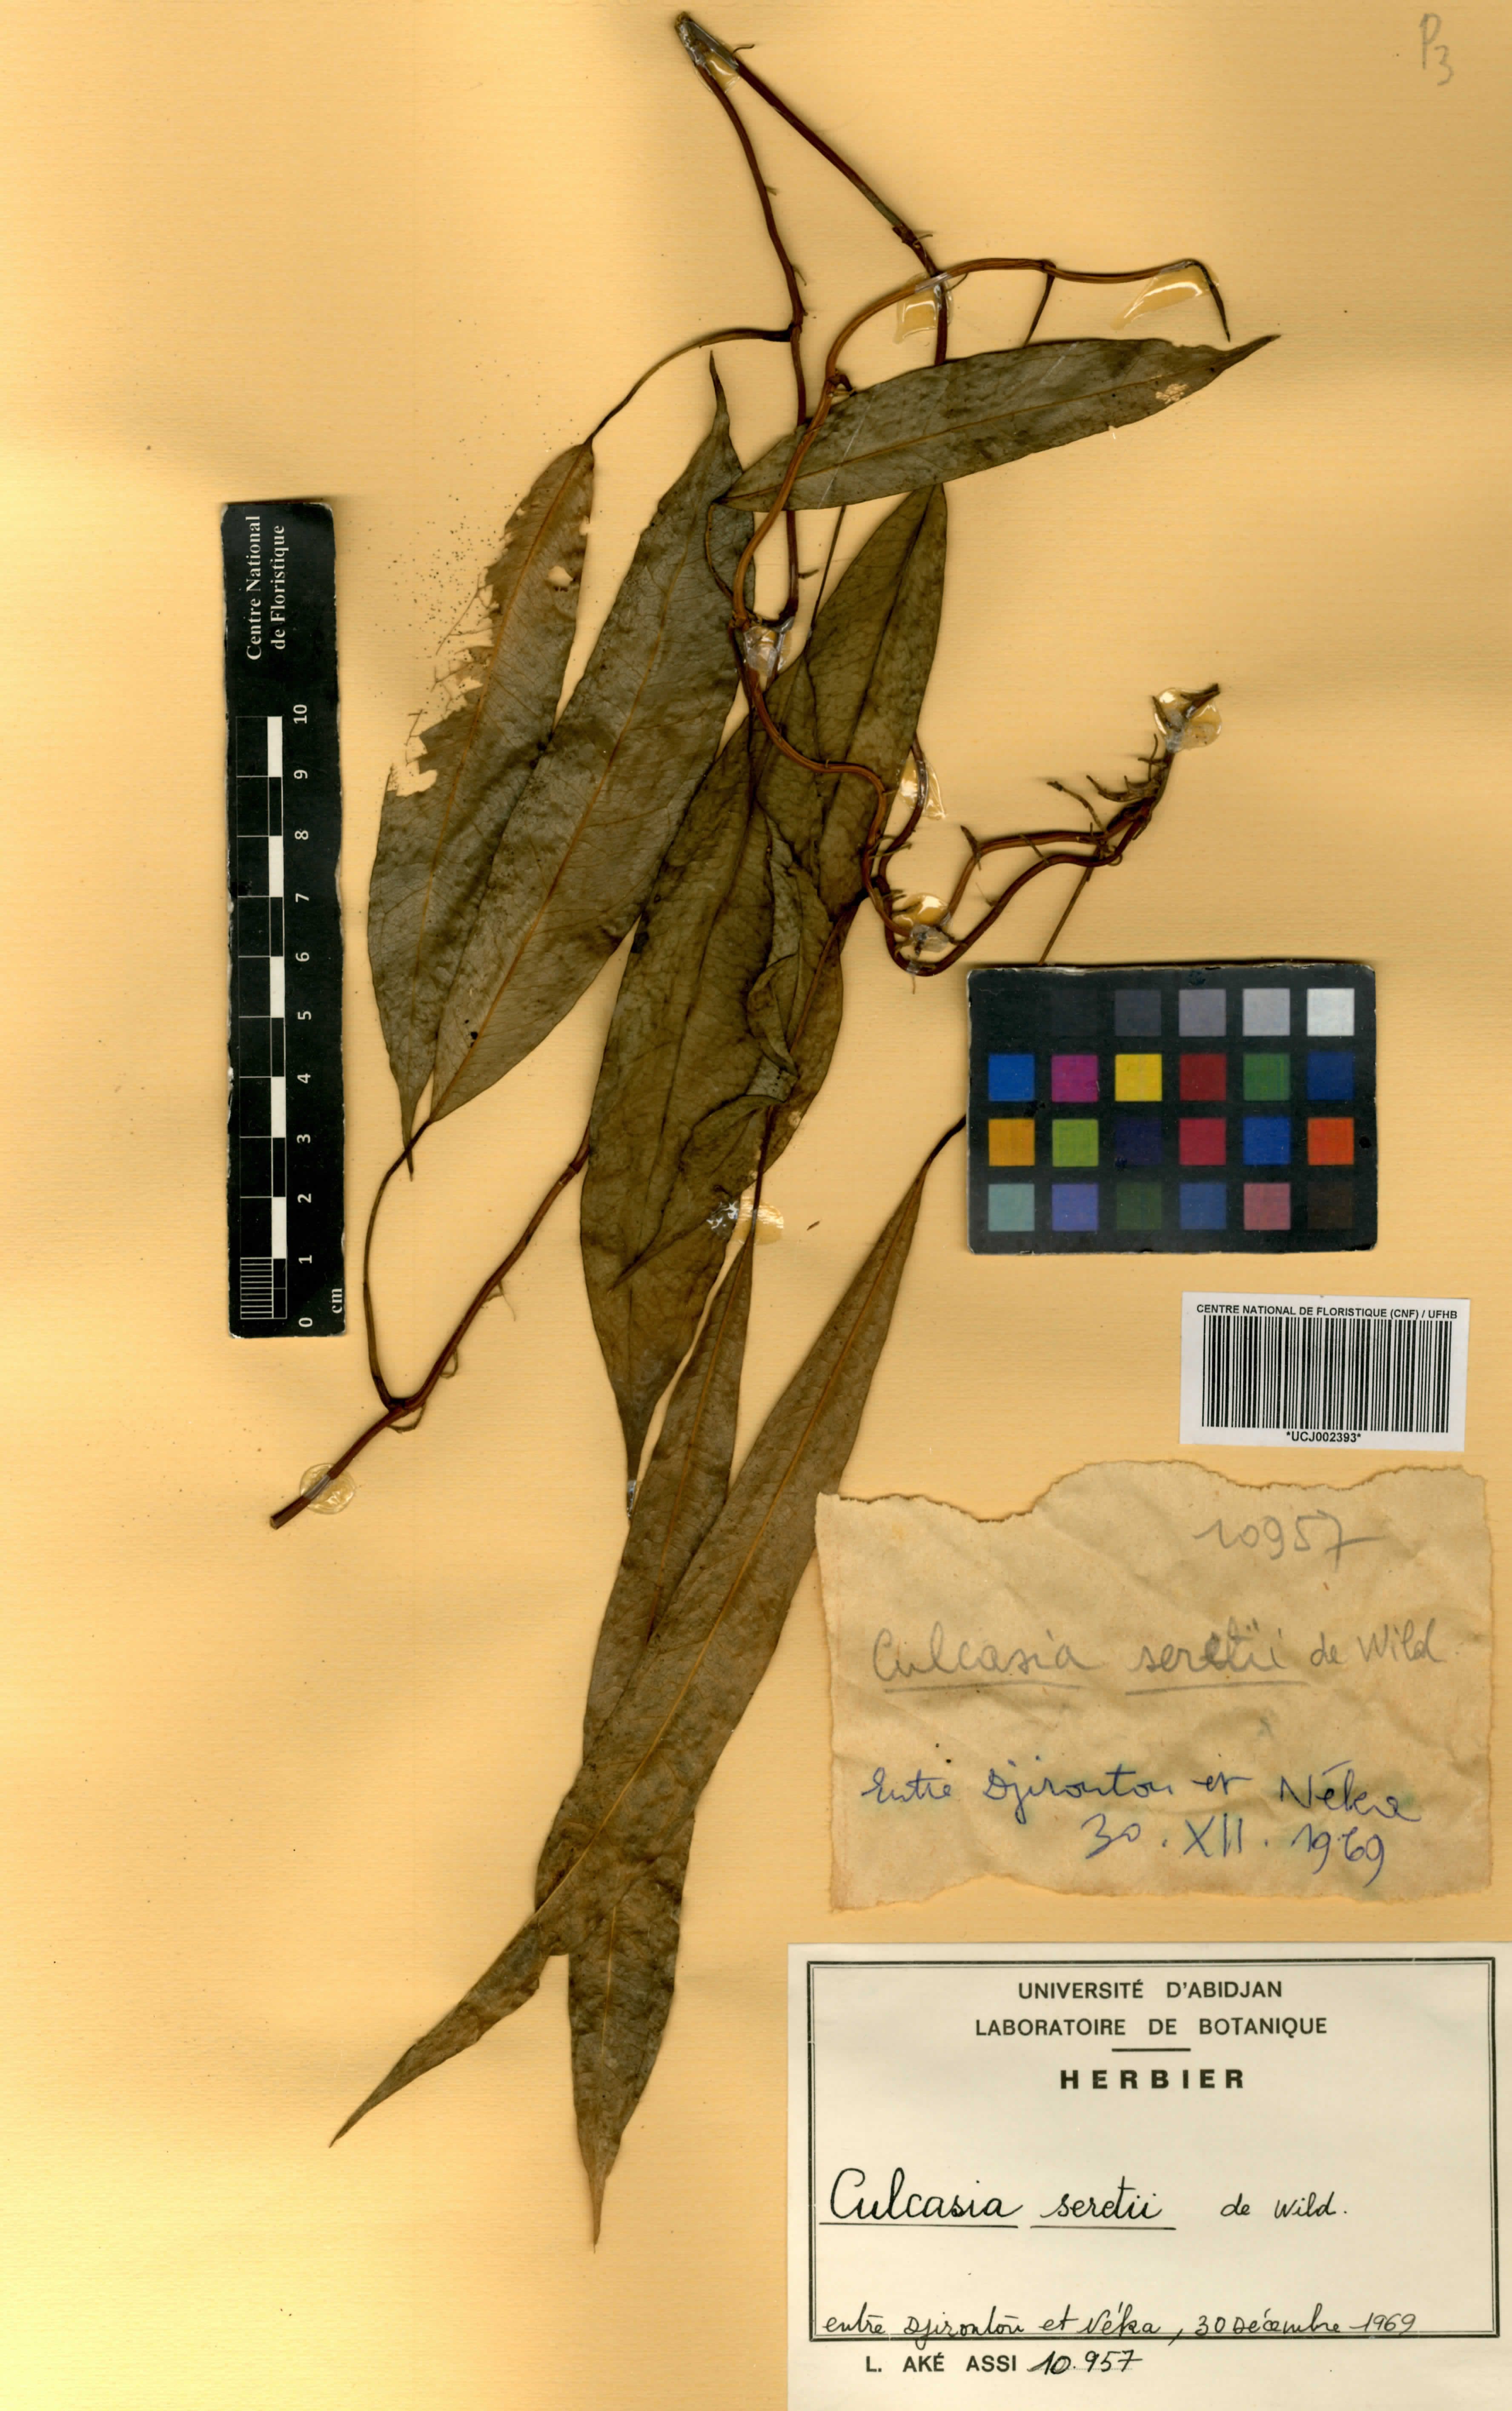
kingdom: Plantae
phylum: Tracheophyta
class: Liliopsida
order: Alismatales
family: Araceae
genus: Culcasia
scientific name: Culcasia seretii
